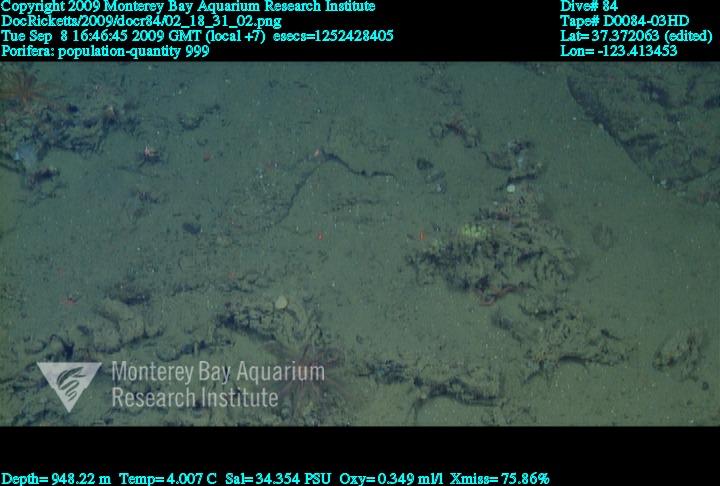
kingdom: Animalia
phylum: Porifera
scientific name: Porifera
